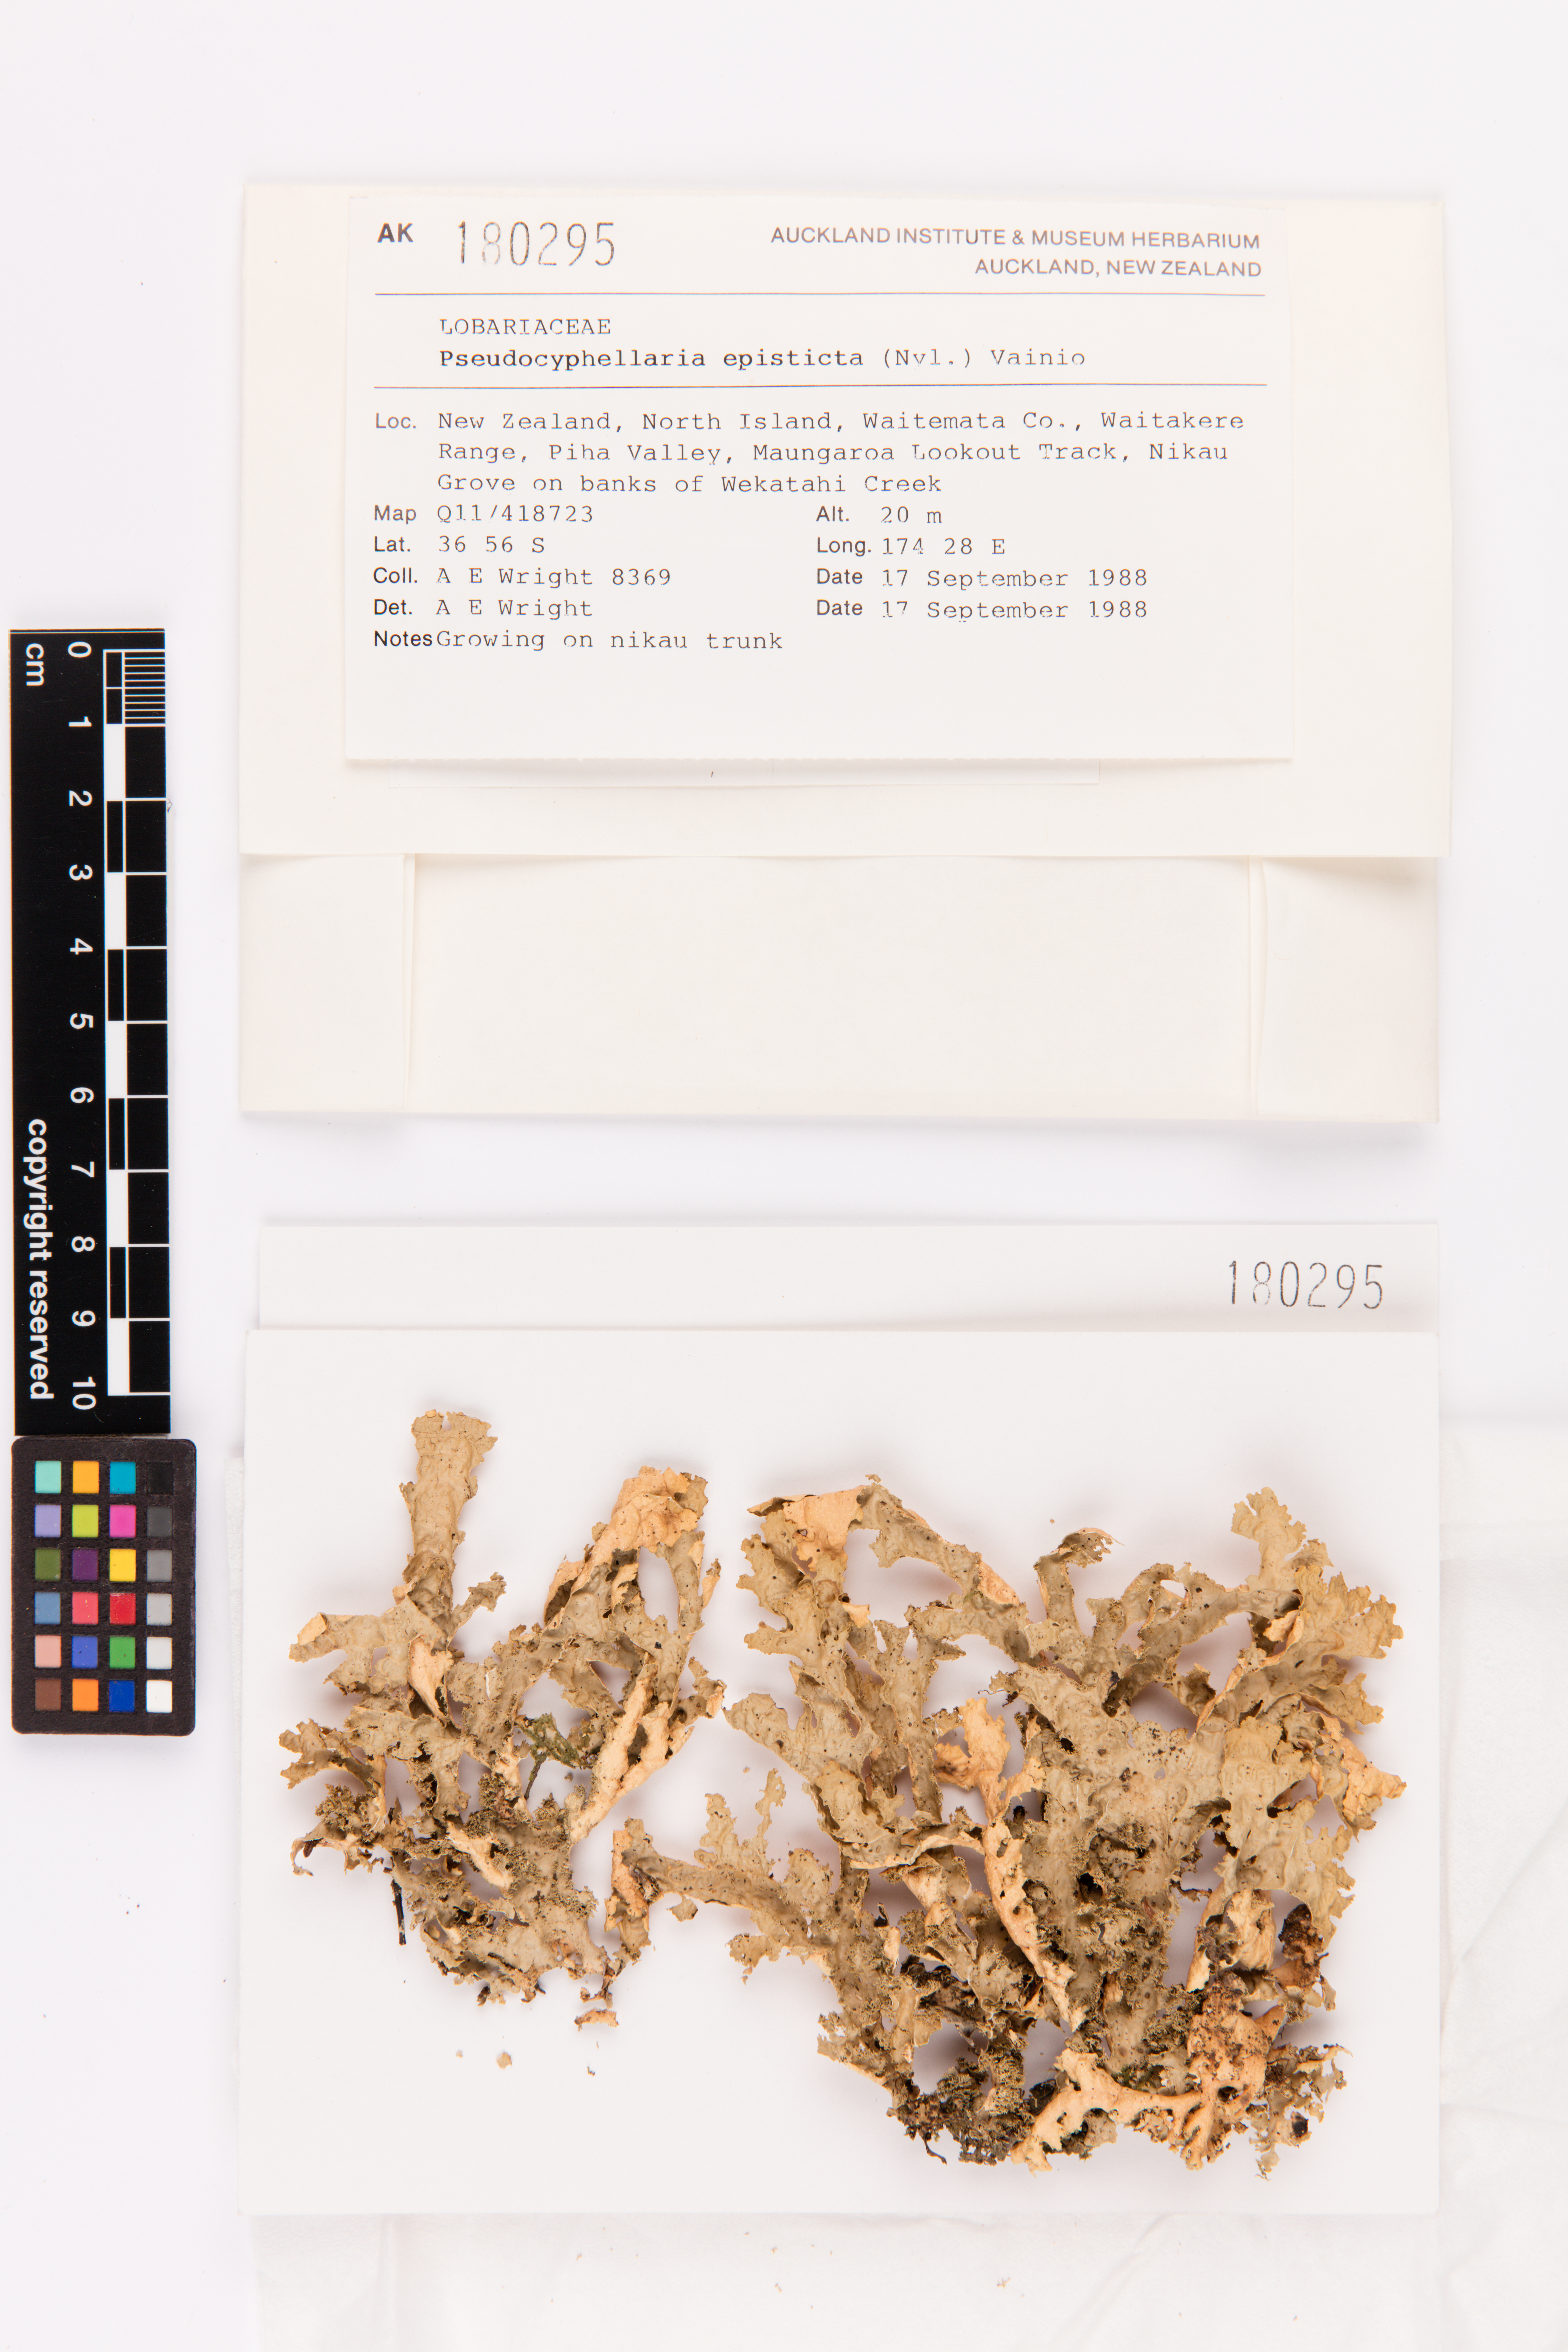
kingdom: Fungi
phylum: Ascomycota
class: Lecanoromycetes
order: Peltigerales
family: Lobariaceae
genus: Pseudocyphellaria
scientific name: Pseudocyphellaria episticta
